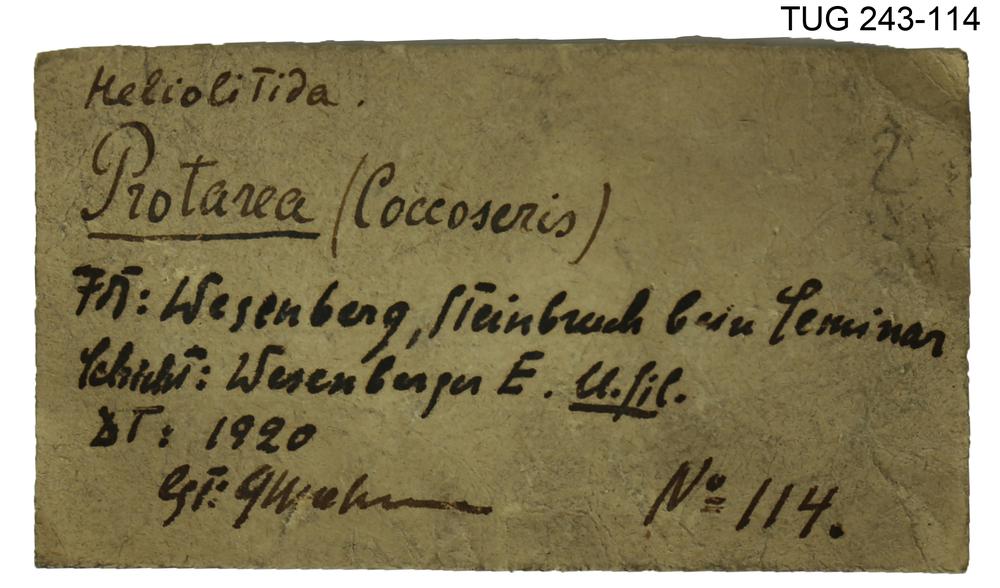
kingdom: Animalia
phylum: Cnidaria
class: Anthozoa
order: Heliolitina
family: Heliolitidae
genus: Coccoseris
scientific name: Coccoseris
